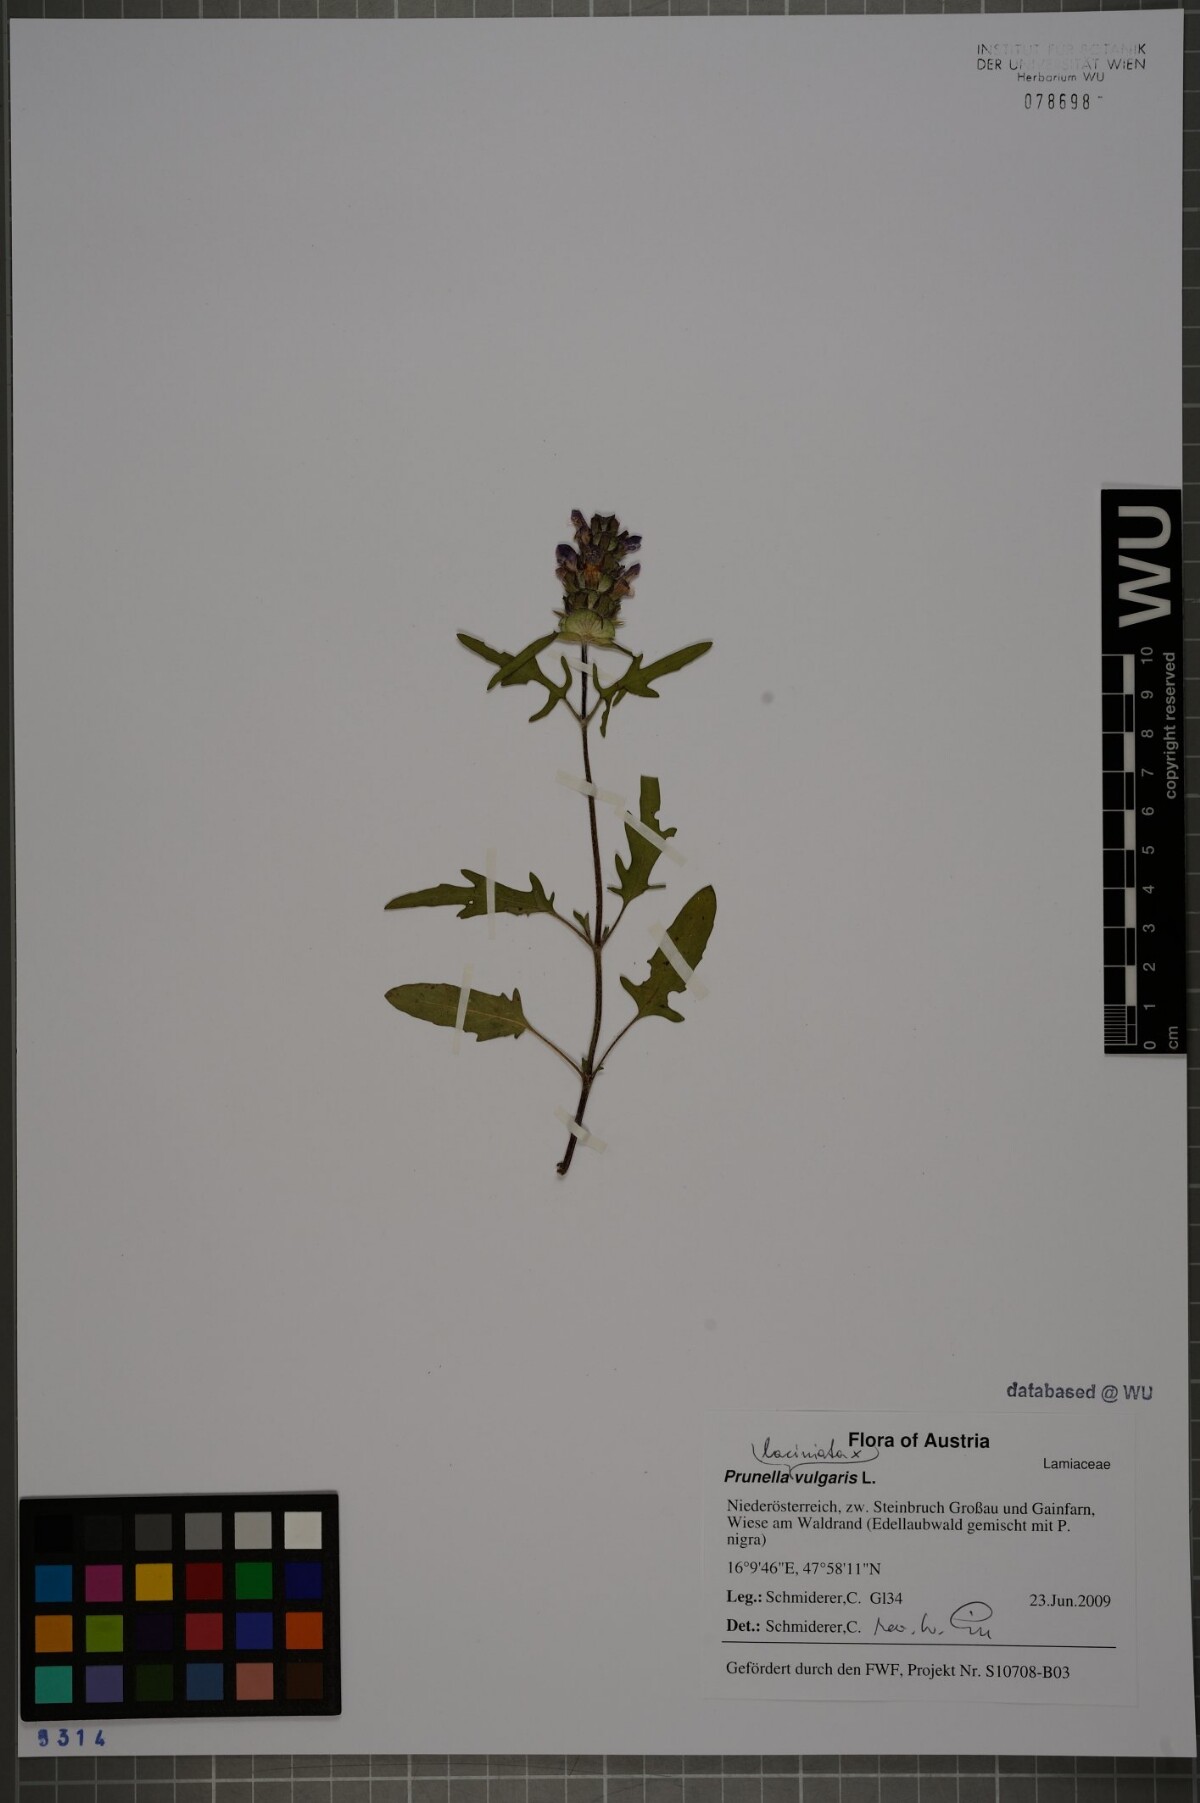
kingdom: Plantae
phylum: Tracheophyta
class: Magnoliopsida
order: Lamiales
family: Lamiaceae
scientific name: Lamiaceae
